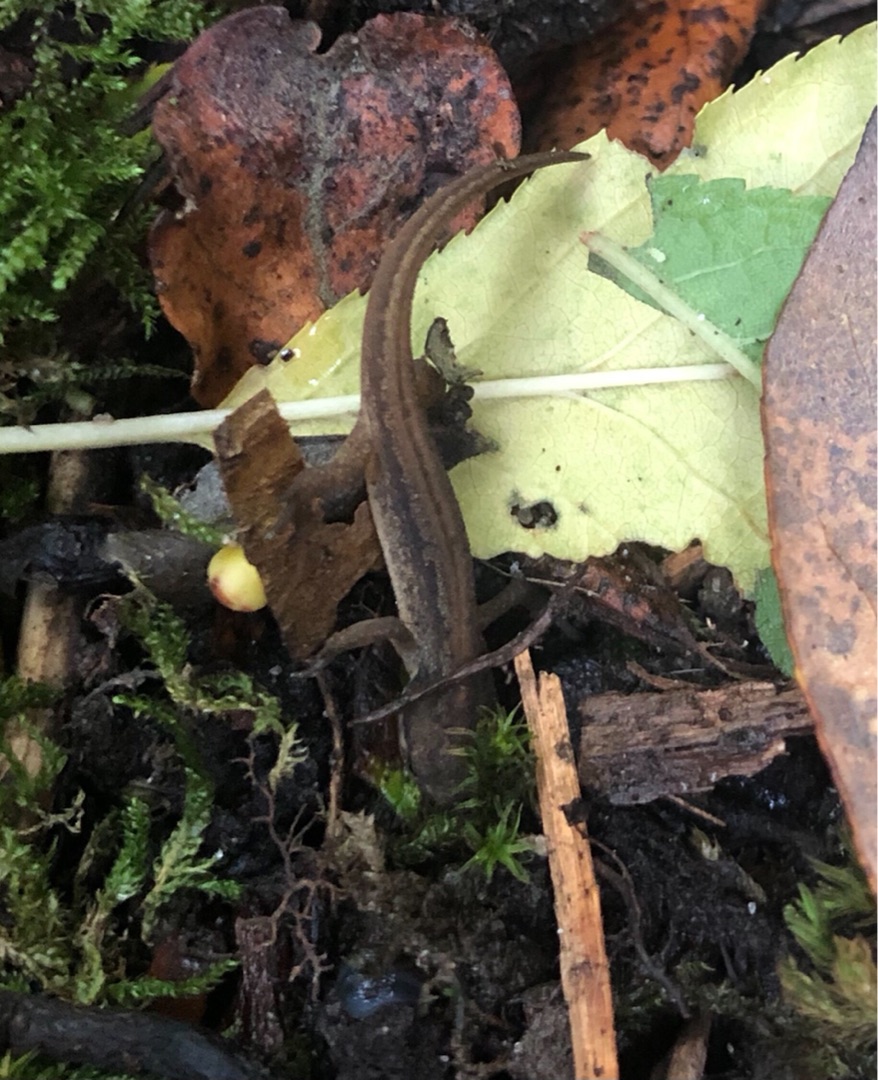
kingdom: Animalia
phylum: Chordata
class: Amphibia
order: Caudata
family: Salamandridae
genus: Lissotriton
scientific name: Lissotriton vulgaris
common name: Lille vandsalamander
